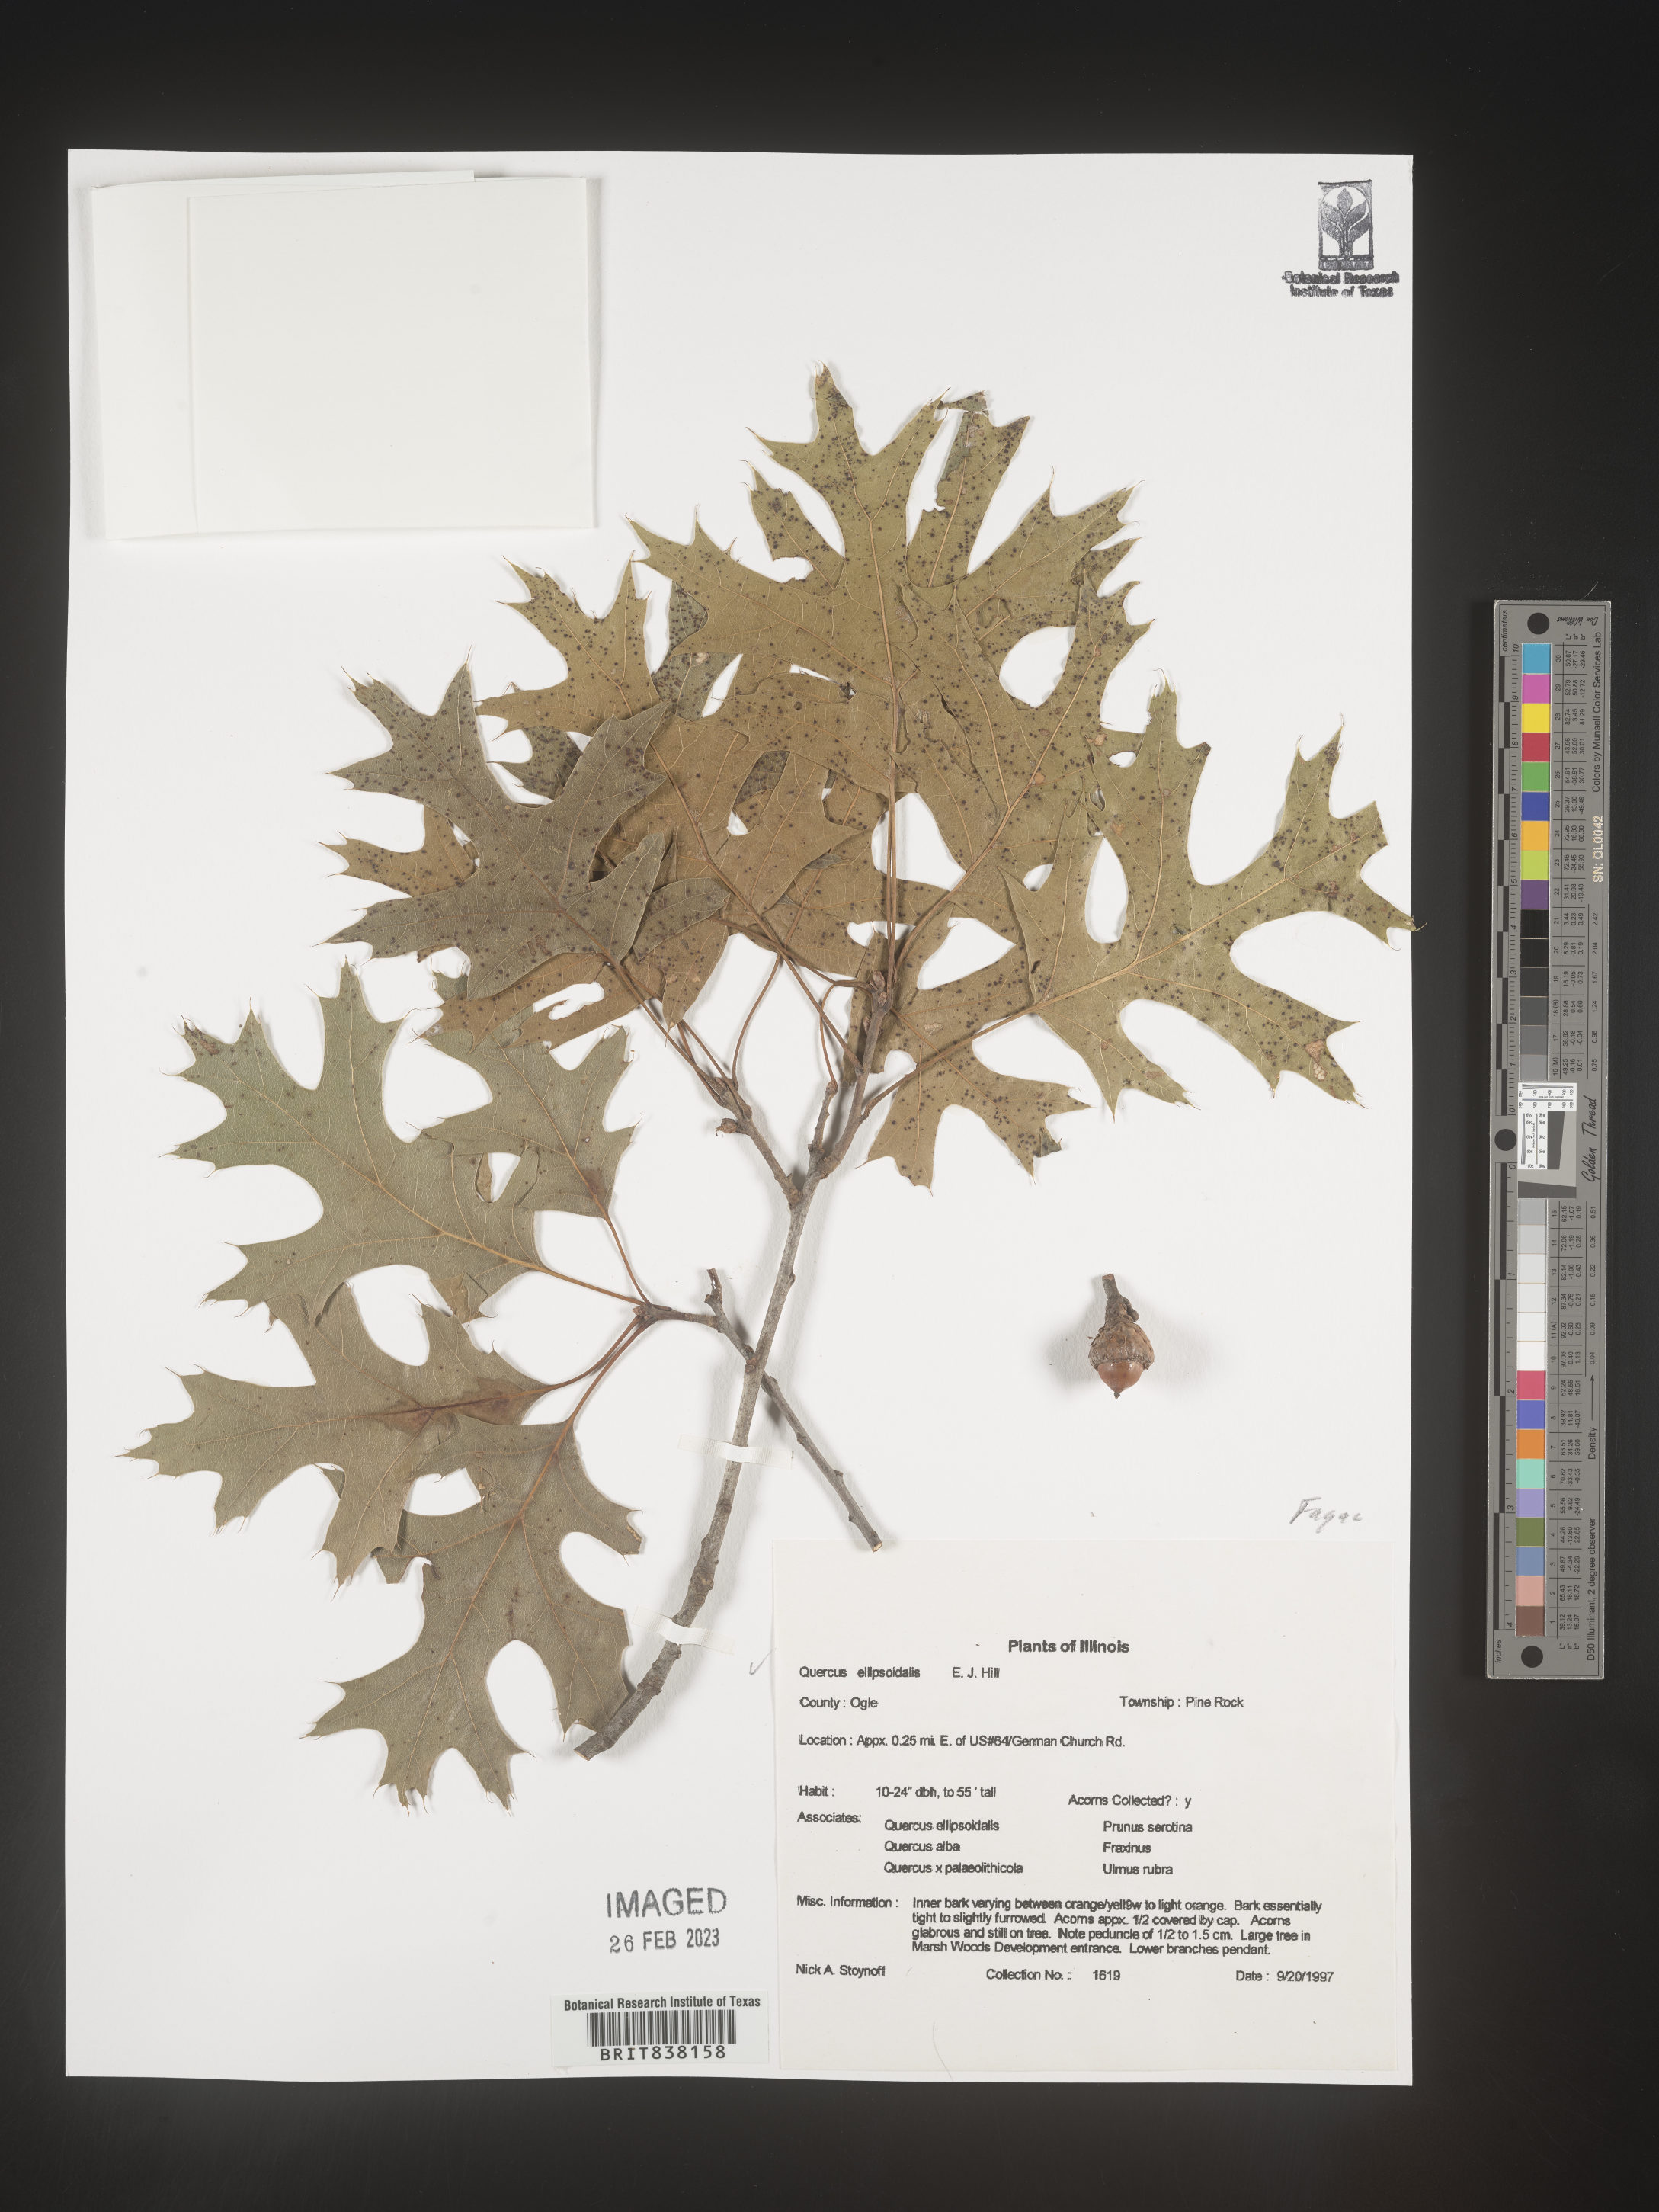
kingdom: Plantae
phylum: Tracheophyta
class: Magnoliopsida
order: Fagales
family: Fagaceae
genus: Quercus
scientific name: Quercus ellipsoidalis
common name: Hill's oak
